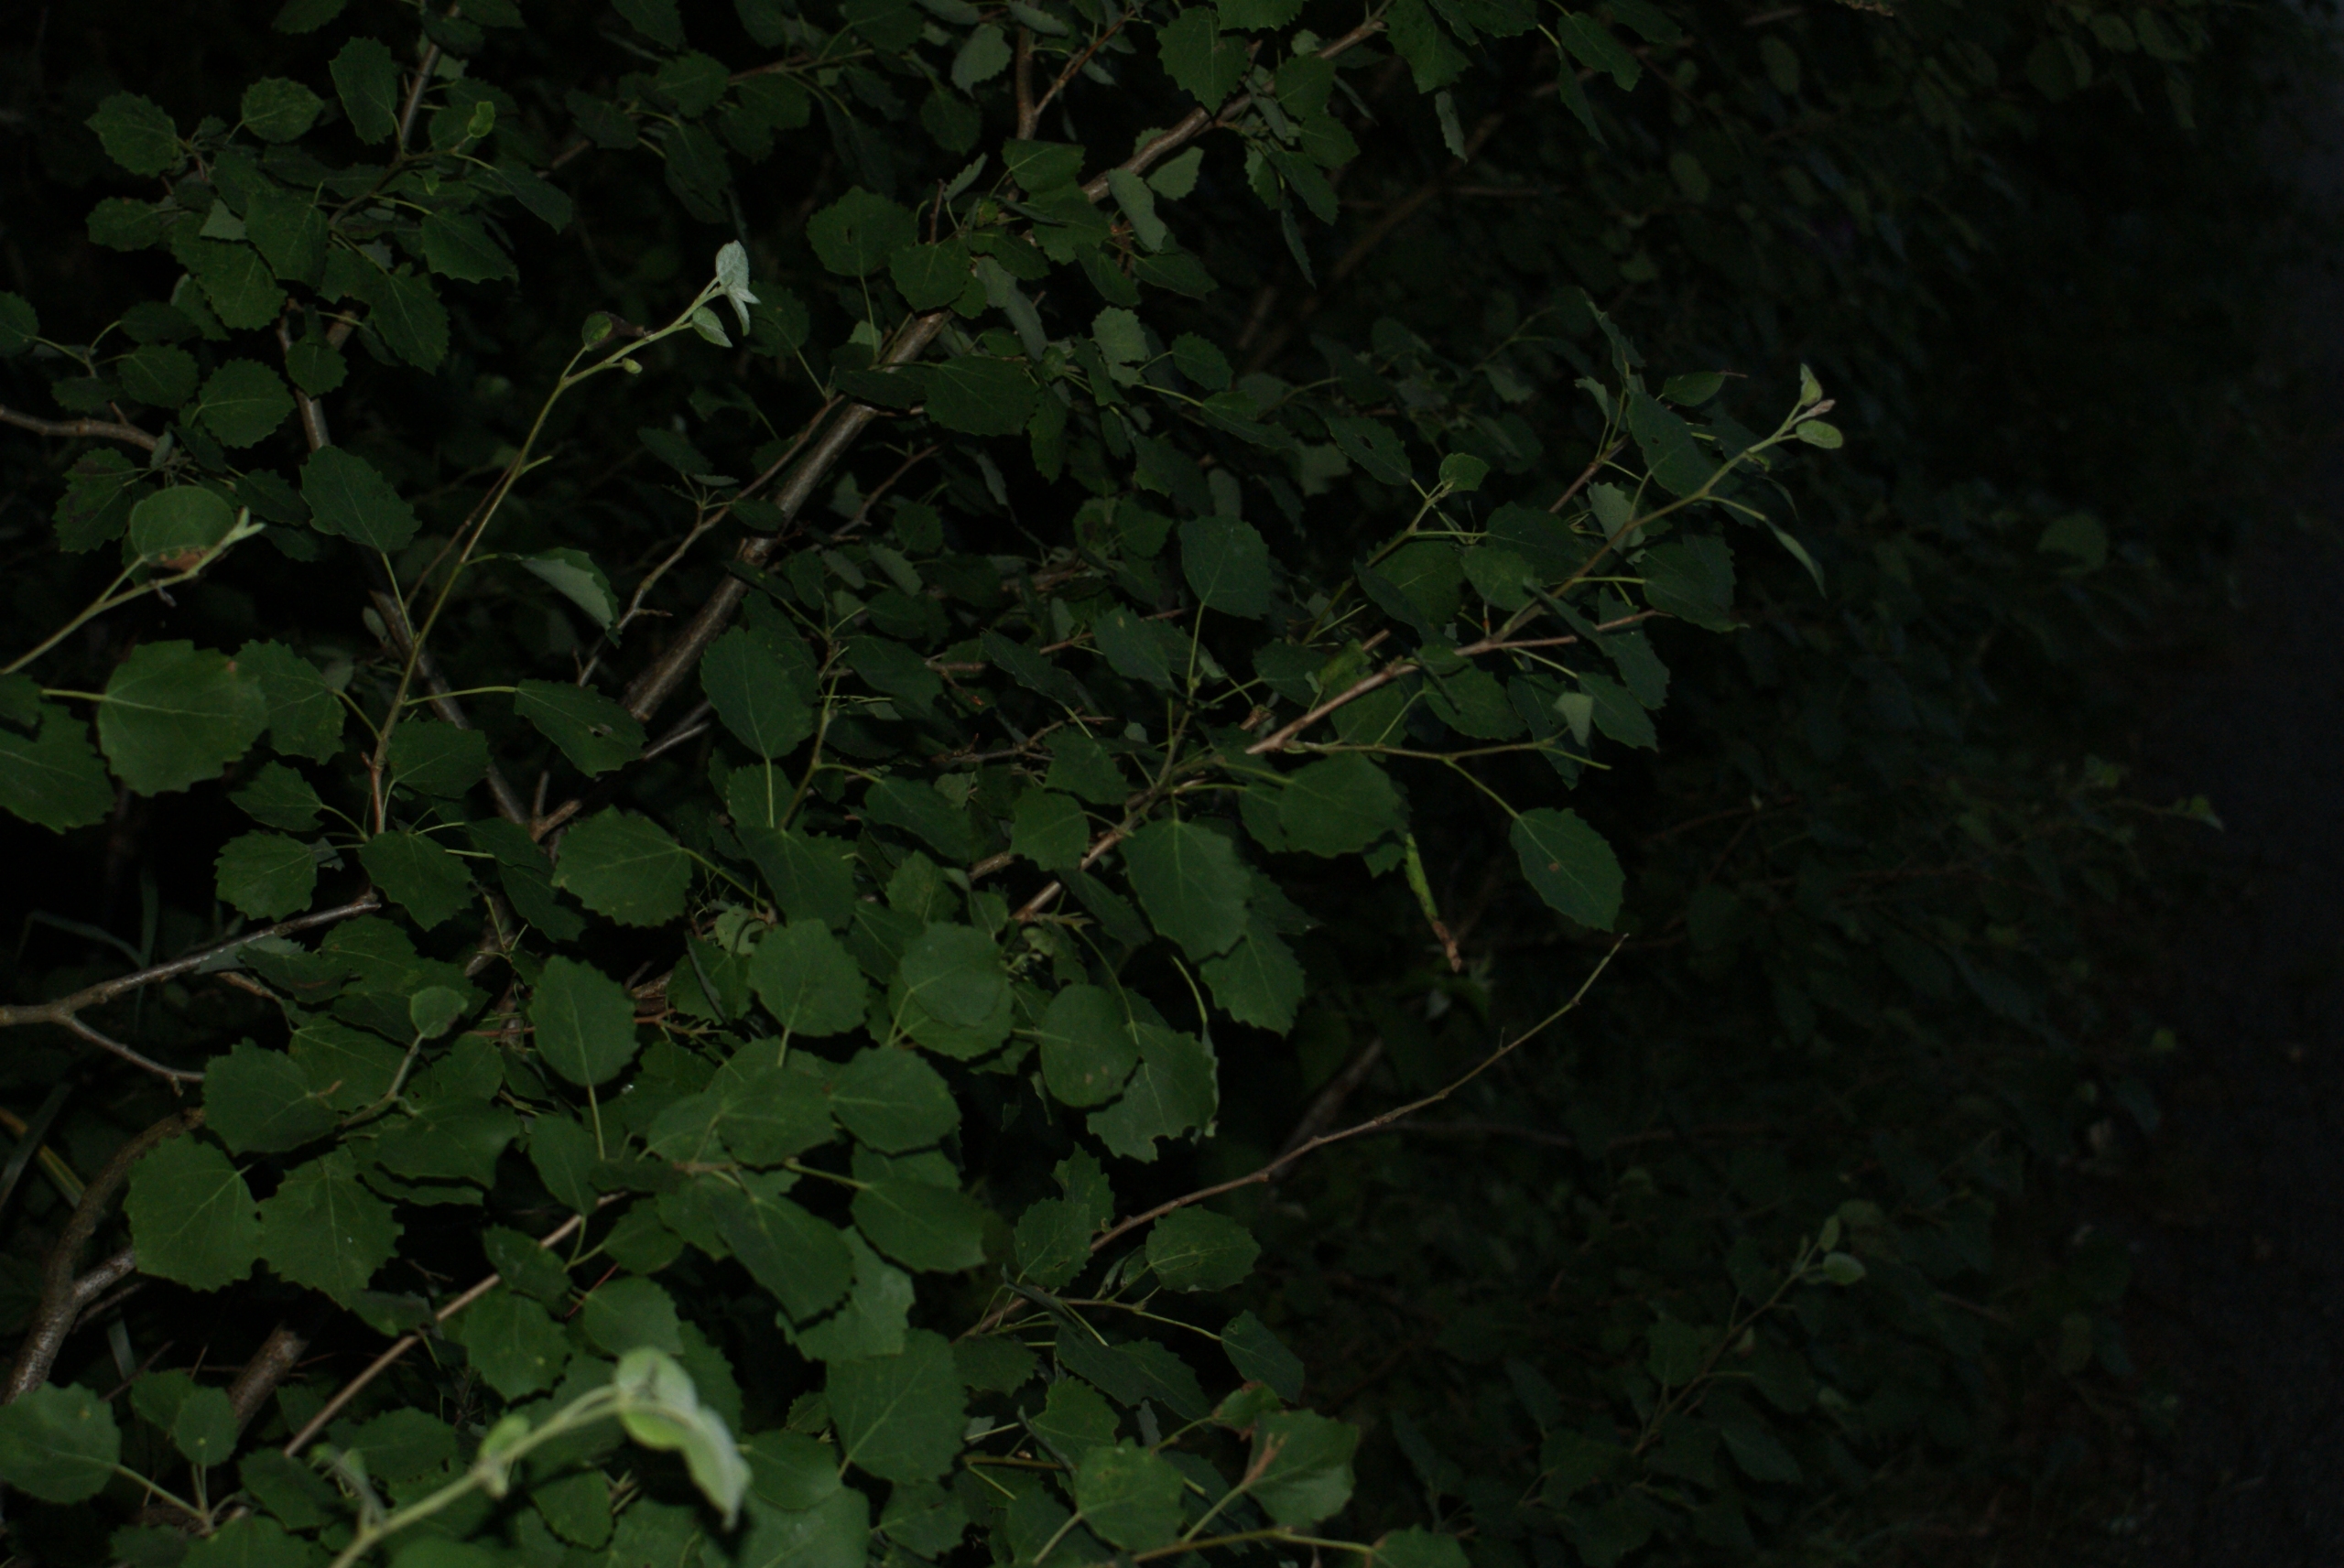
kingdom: Plantae
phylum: Tracheophyta
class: Magnoliopsida
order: Malpighiales
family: Salicaceae
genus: Populus
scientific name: Populus tremula
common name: Bævreasp
